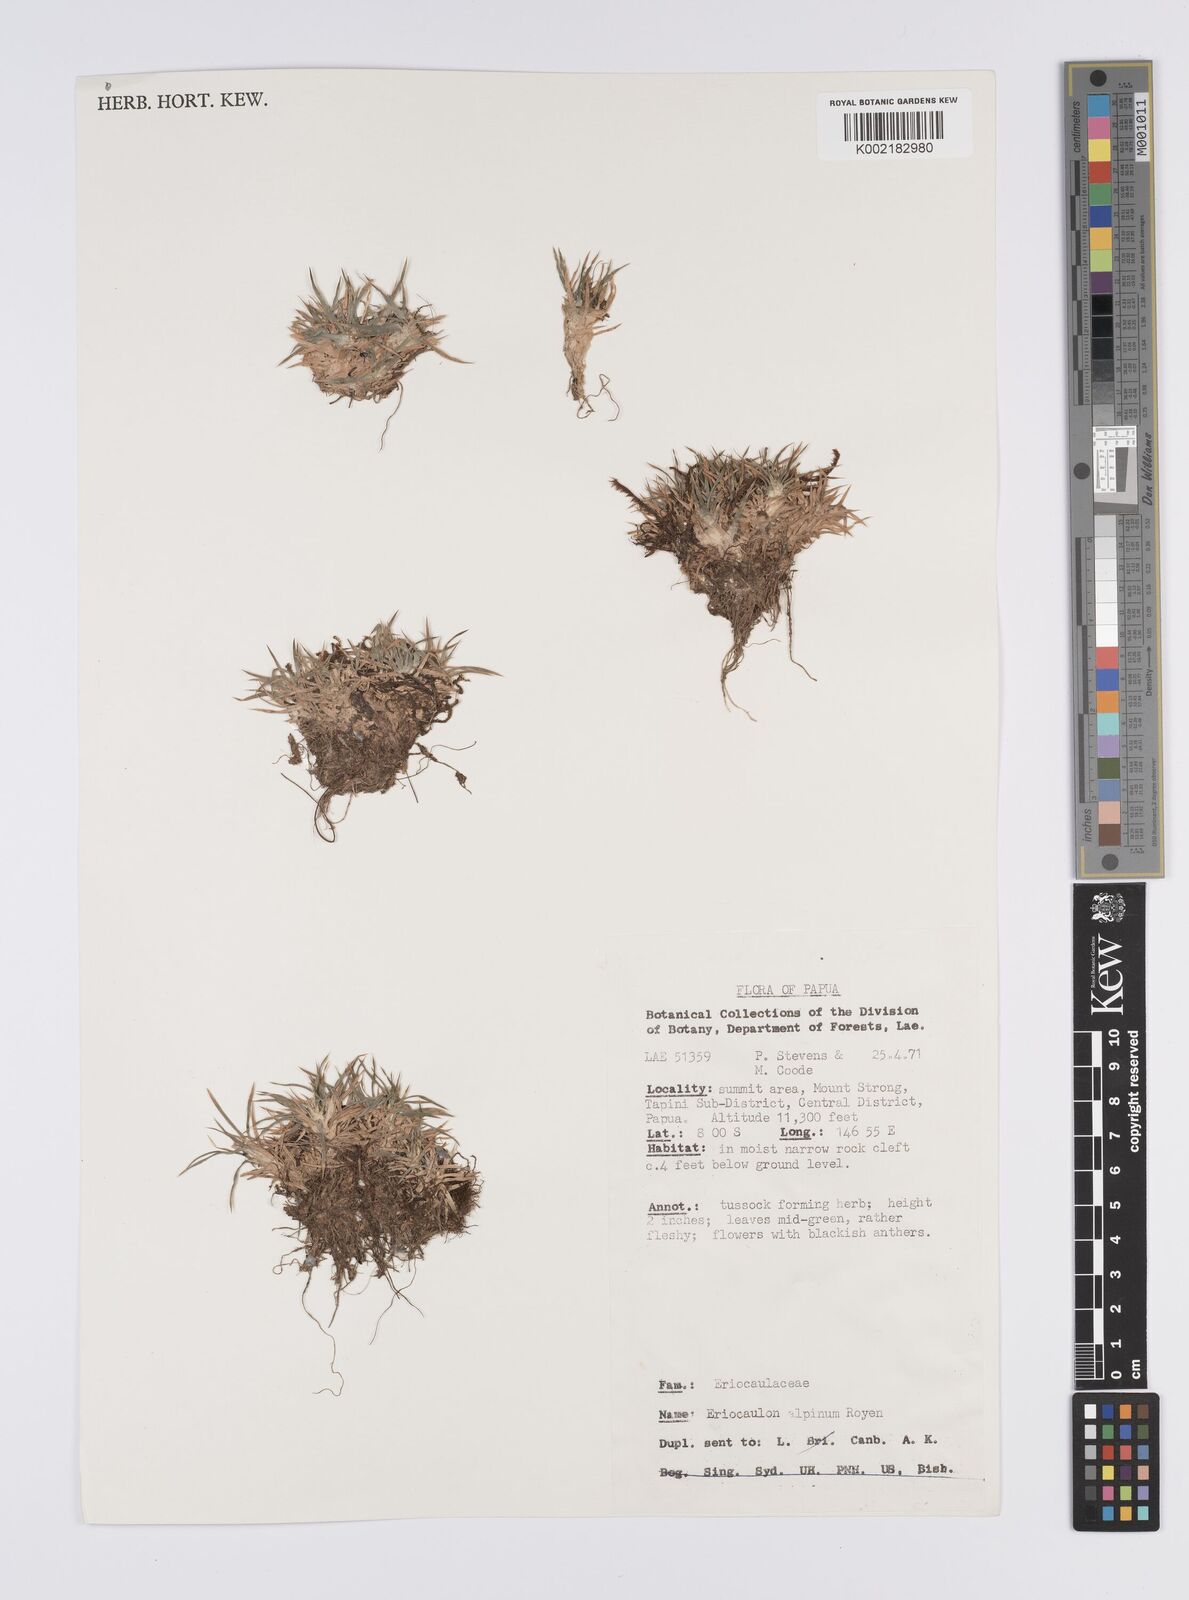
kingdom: Plantae
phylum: Tracheophyta
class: Liliopsida
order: Poales
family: Eriocaulaceae
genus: Eriocaulon
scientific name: Eriocaulon montanum
